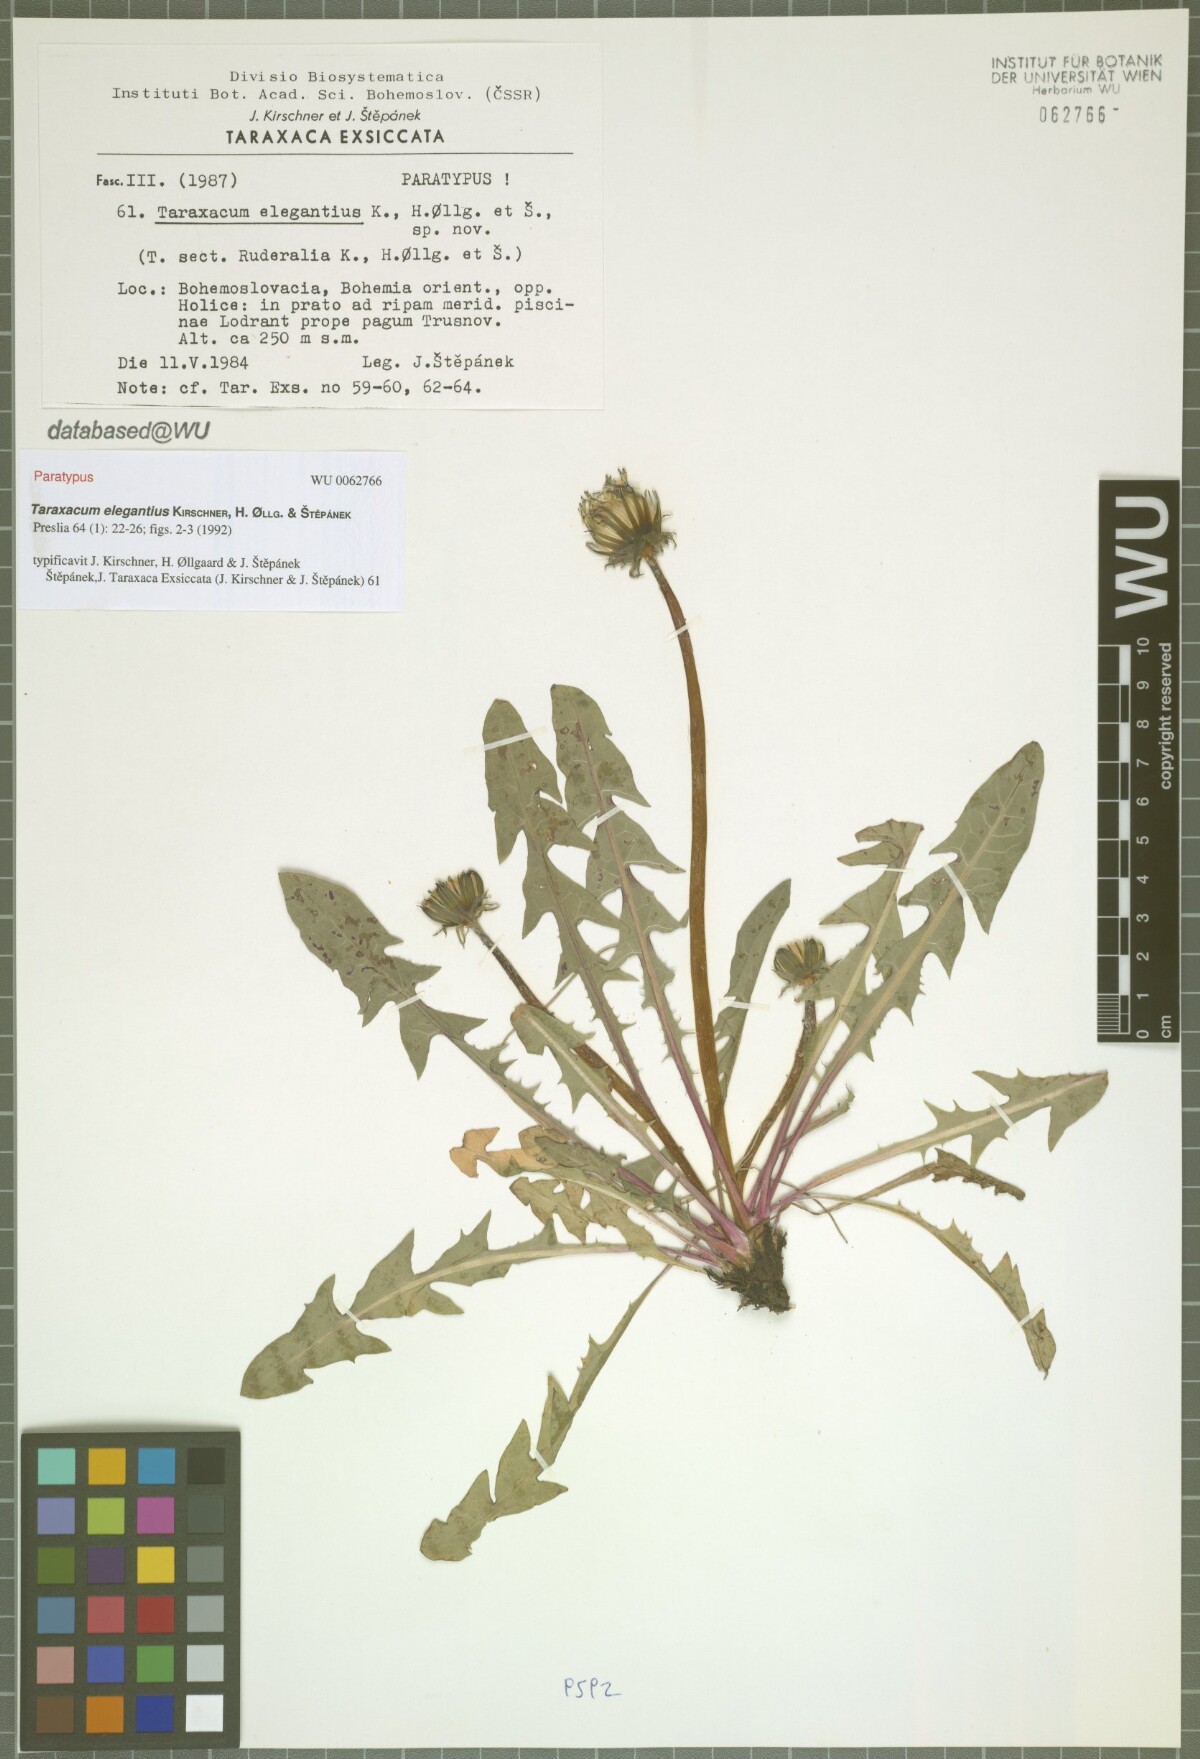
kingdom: Plantae
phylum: Tracheophyta
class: Magnoliopsida
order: Asterales
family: Asteraceae
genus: Taraxacum
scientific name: Taraxacum elegantius
